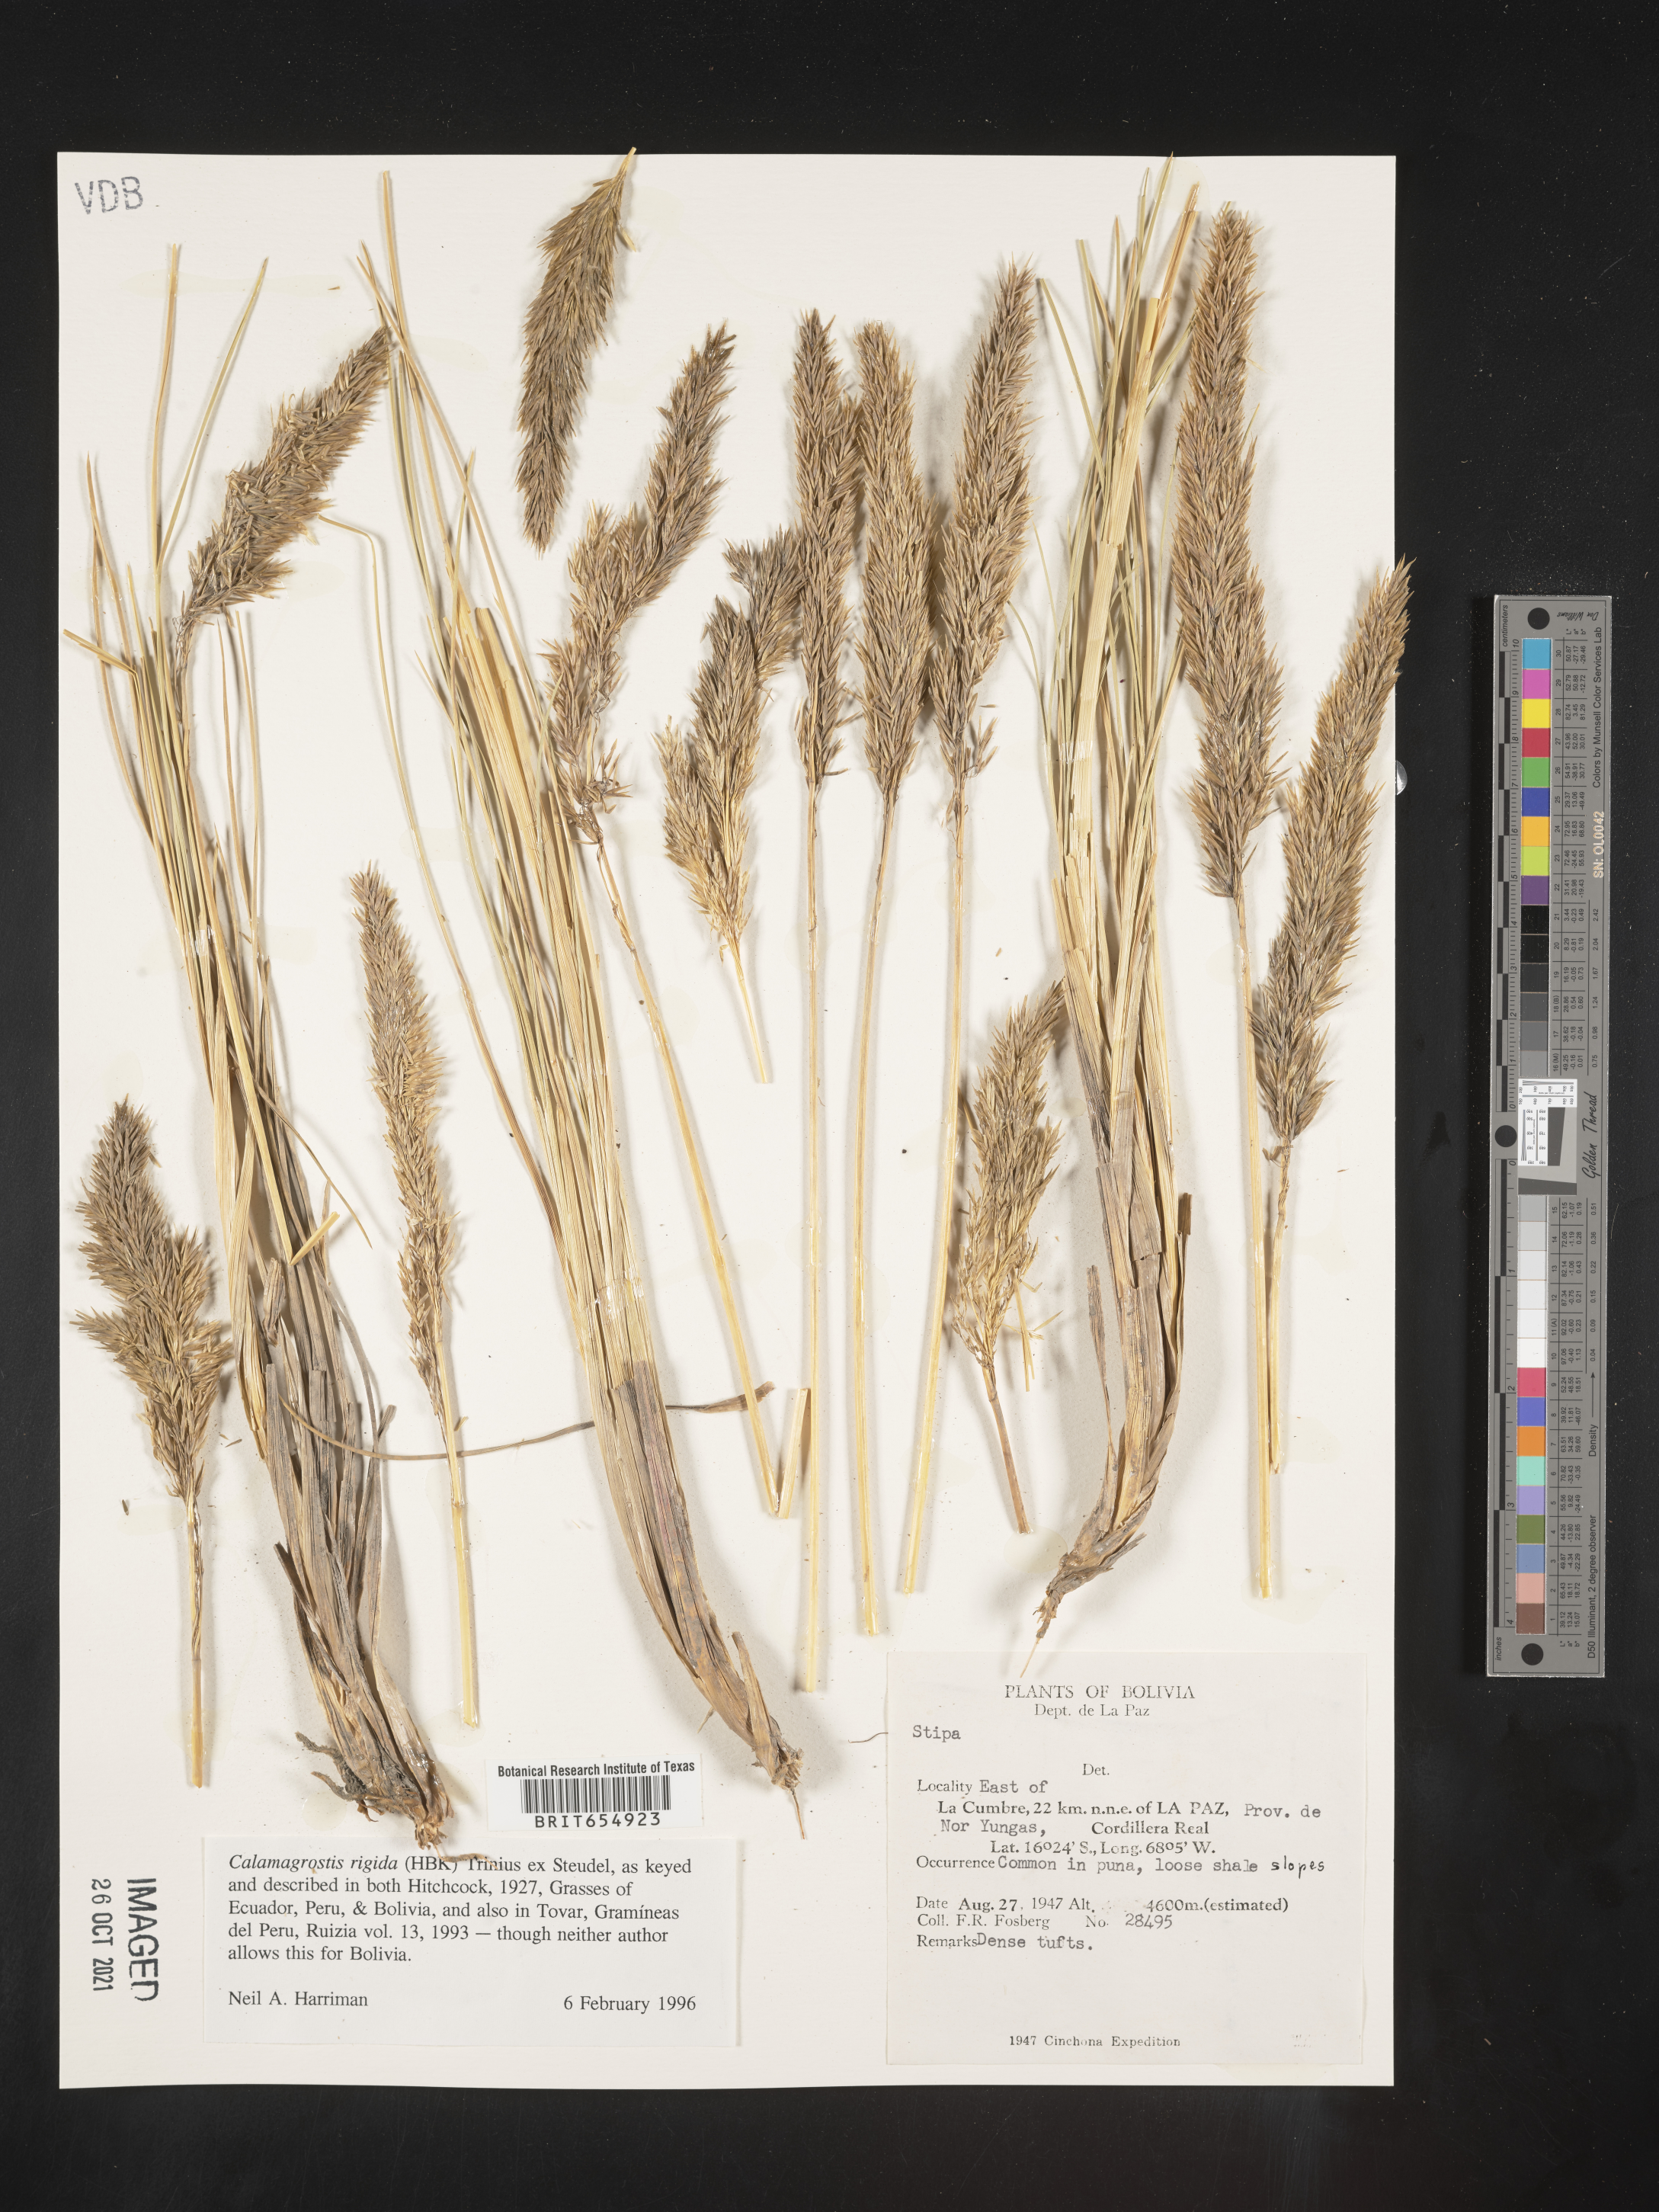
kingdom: Plantae
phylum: Tracheophyta
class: Liliopsida
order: Poales
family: Poaceae
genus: Calamagrostis
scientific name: Calamagrostis
